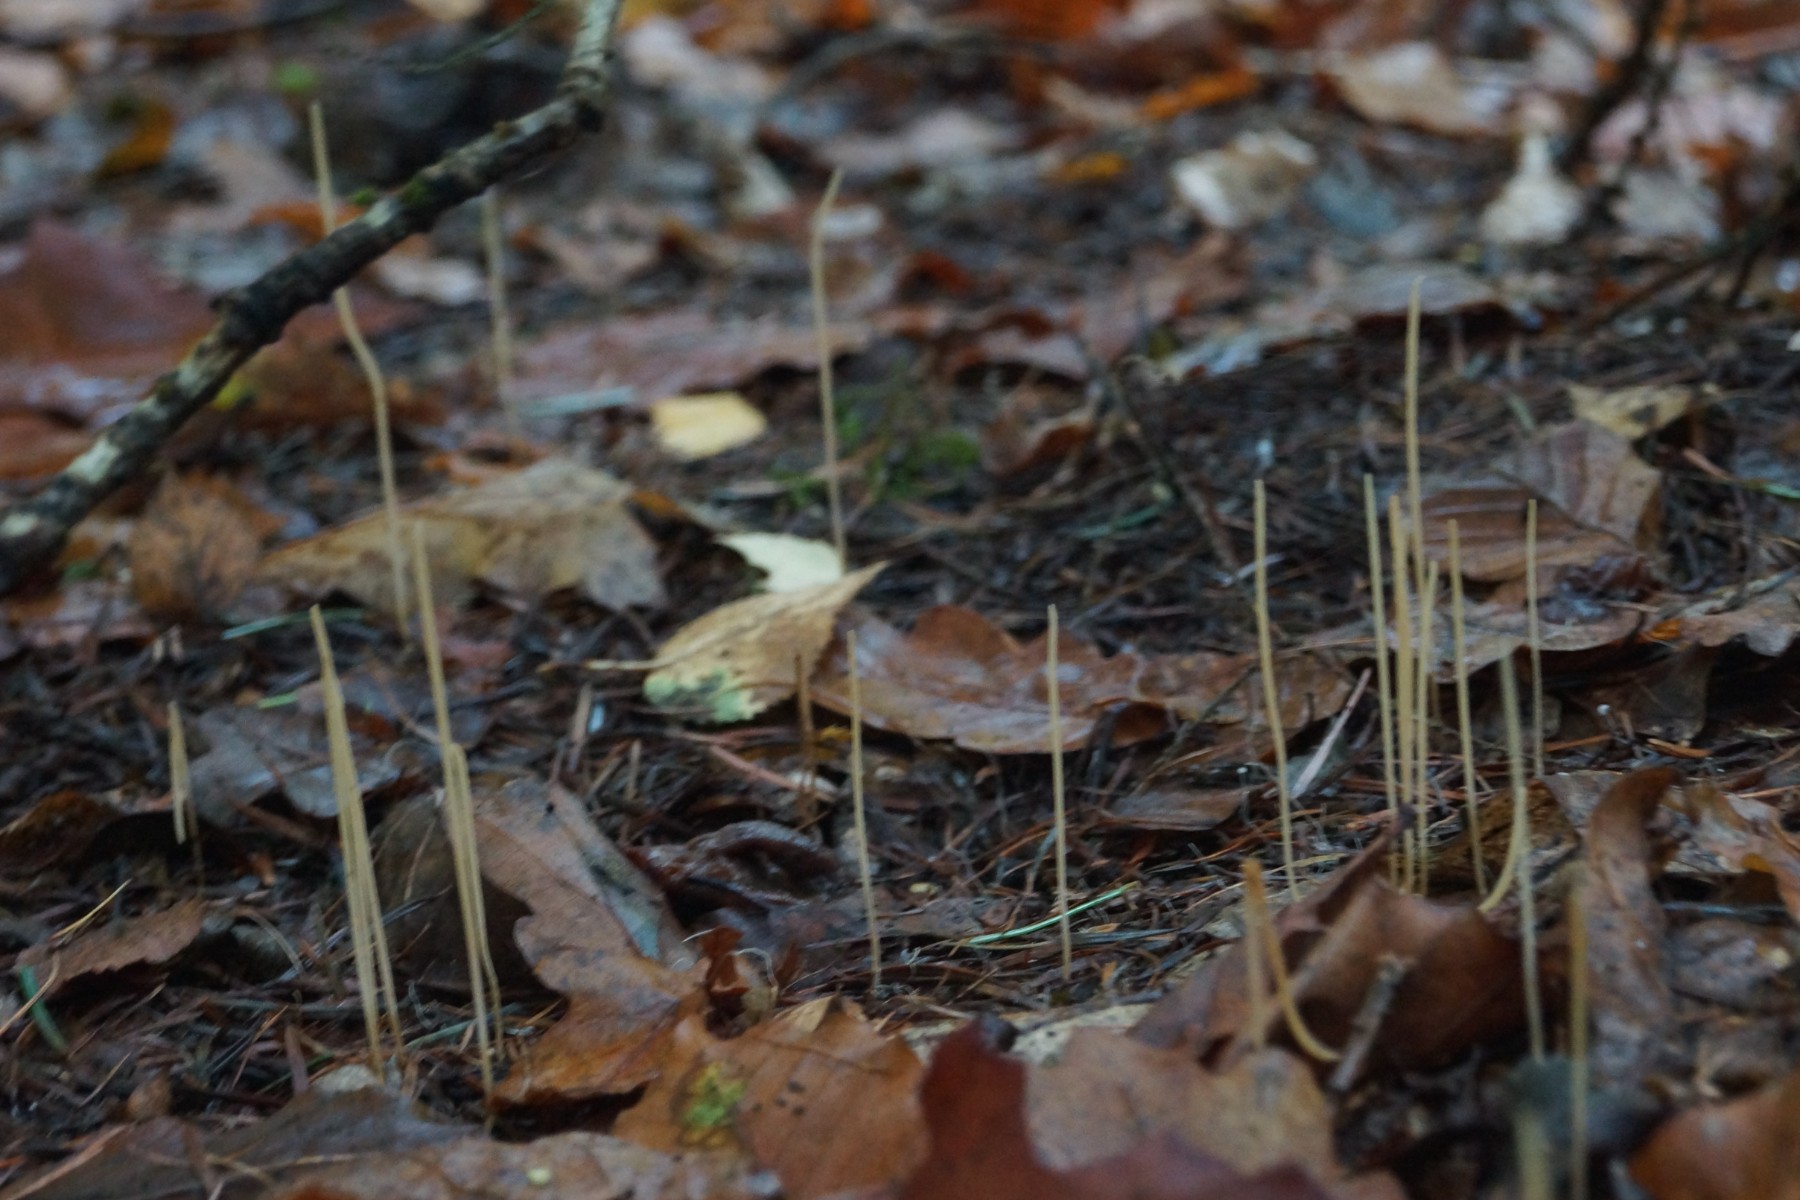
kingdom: Fungi
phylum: Basidiomycota
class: Agaricomycetes
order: Agaricales
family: Typhulaceae
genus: Typhula
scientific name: Typhula juncea
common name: trådagtig rørkølle
